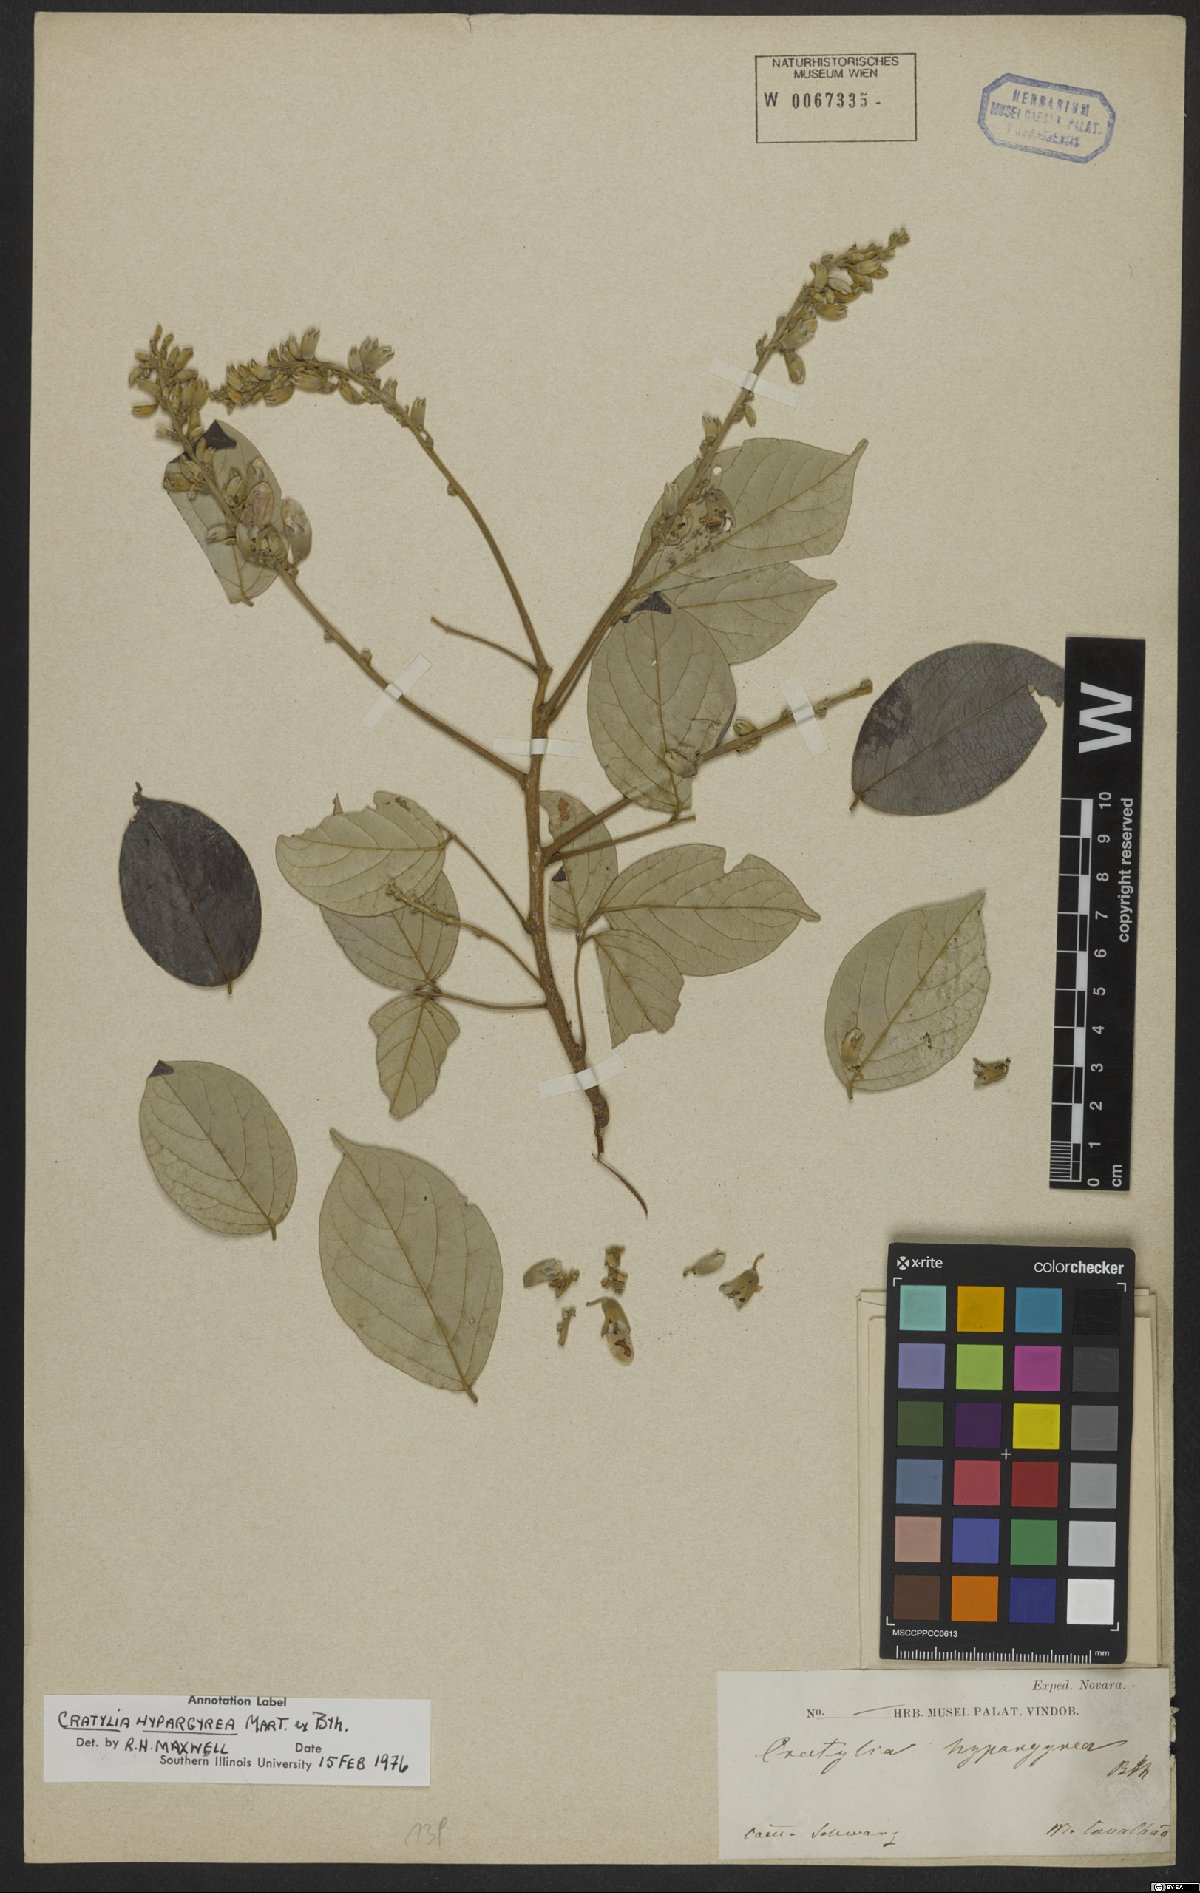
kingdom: Plantae
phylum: Tracheophyta
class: Magnoliopsida
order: Fabales
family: Fabaceae
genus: Cratylia
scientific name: Cratylia hypargyraea
